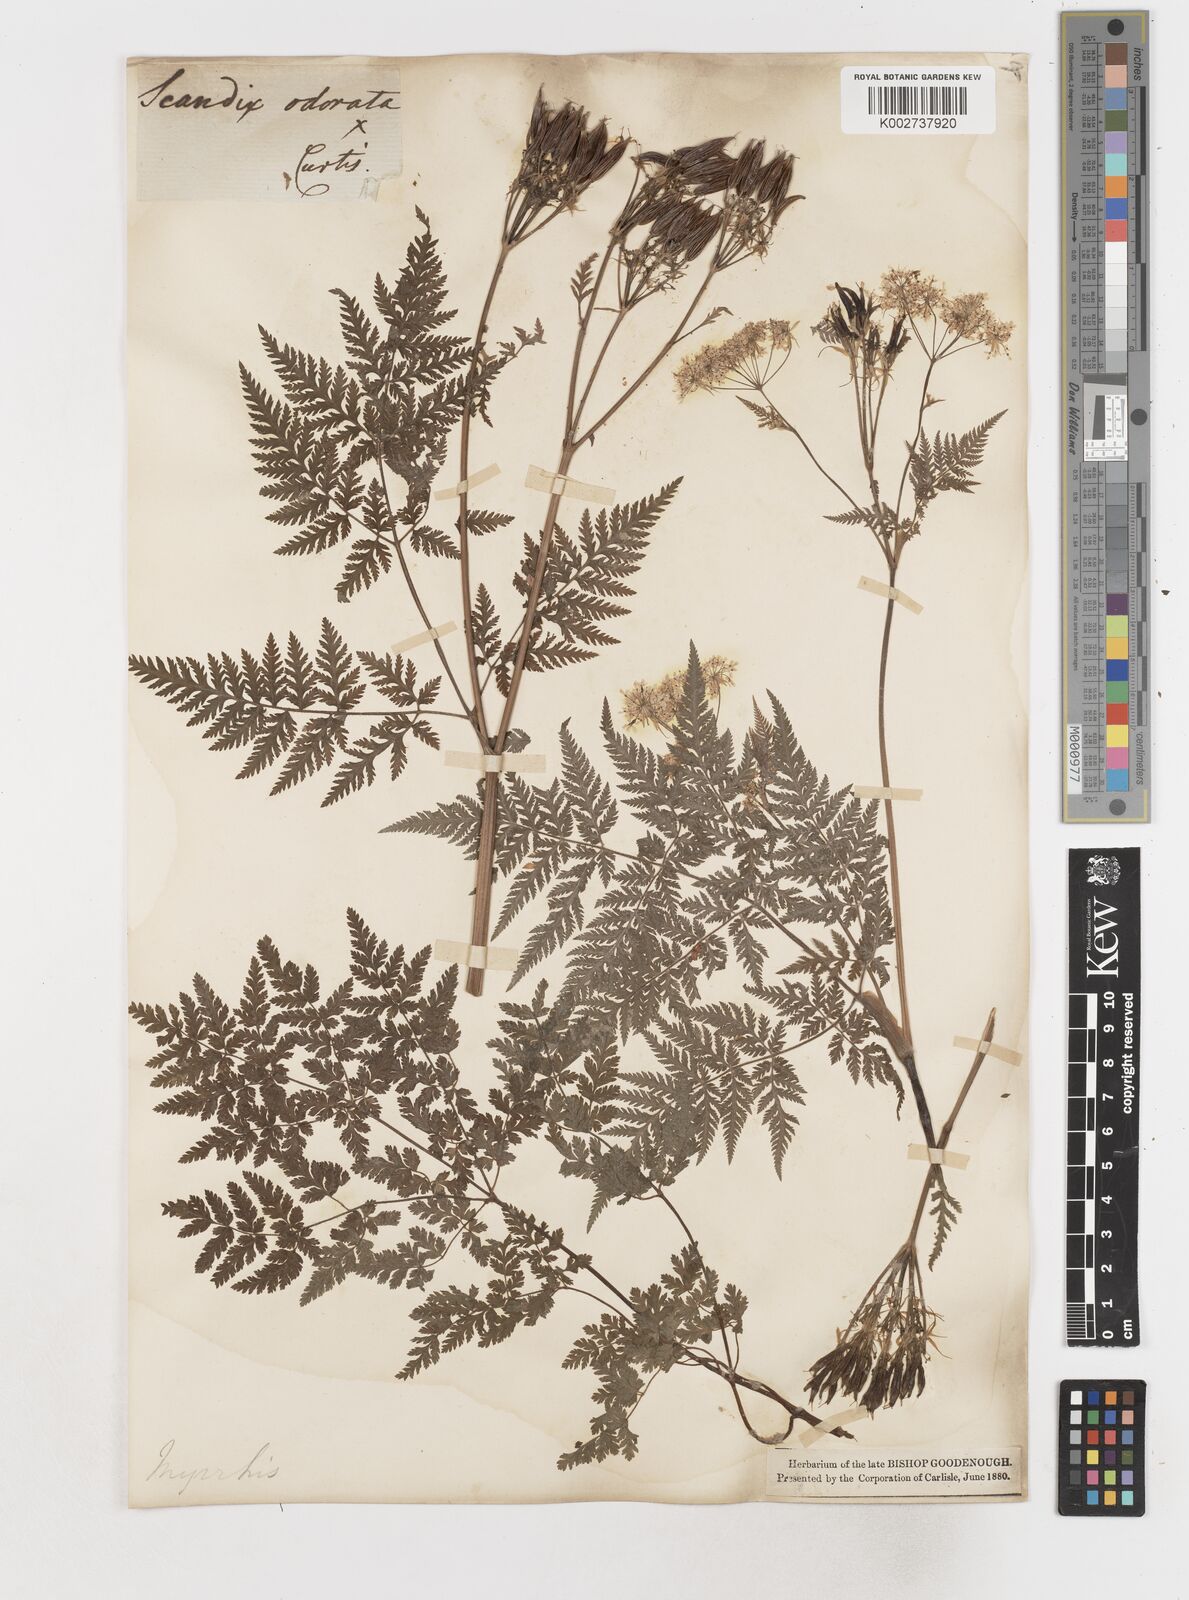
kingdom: Plantae
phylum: Tracheophyta
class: Magnoliopsida
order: Apiales
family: Apiaceae
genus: Myrrhis
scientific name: Myrrhis odorata
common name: Sweet cicely
